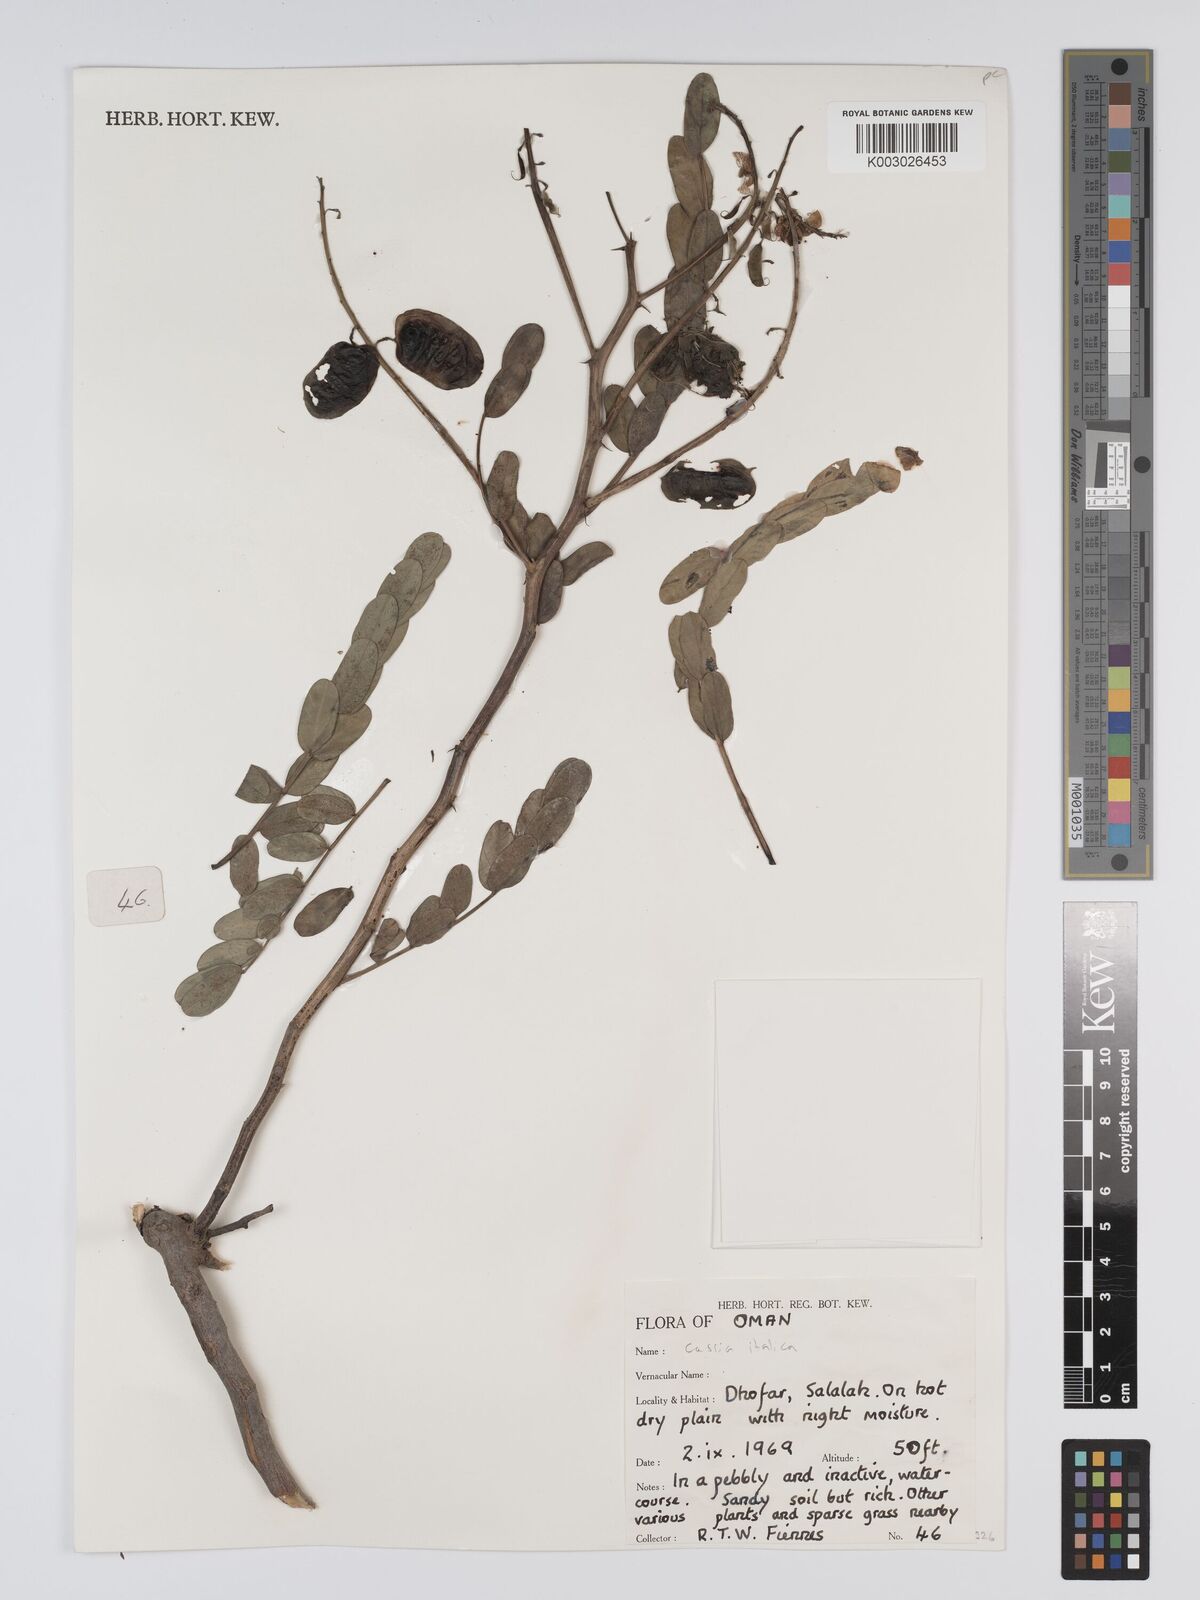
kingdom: Plantae
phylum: Tracheophyta
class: Magnoliopsida
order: Fabales
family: Fabaceae
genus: Cassia
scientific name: Cassia
